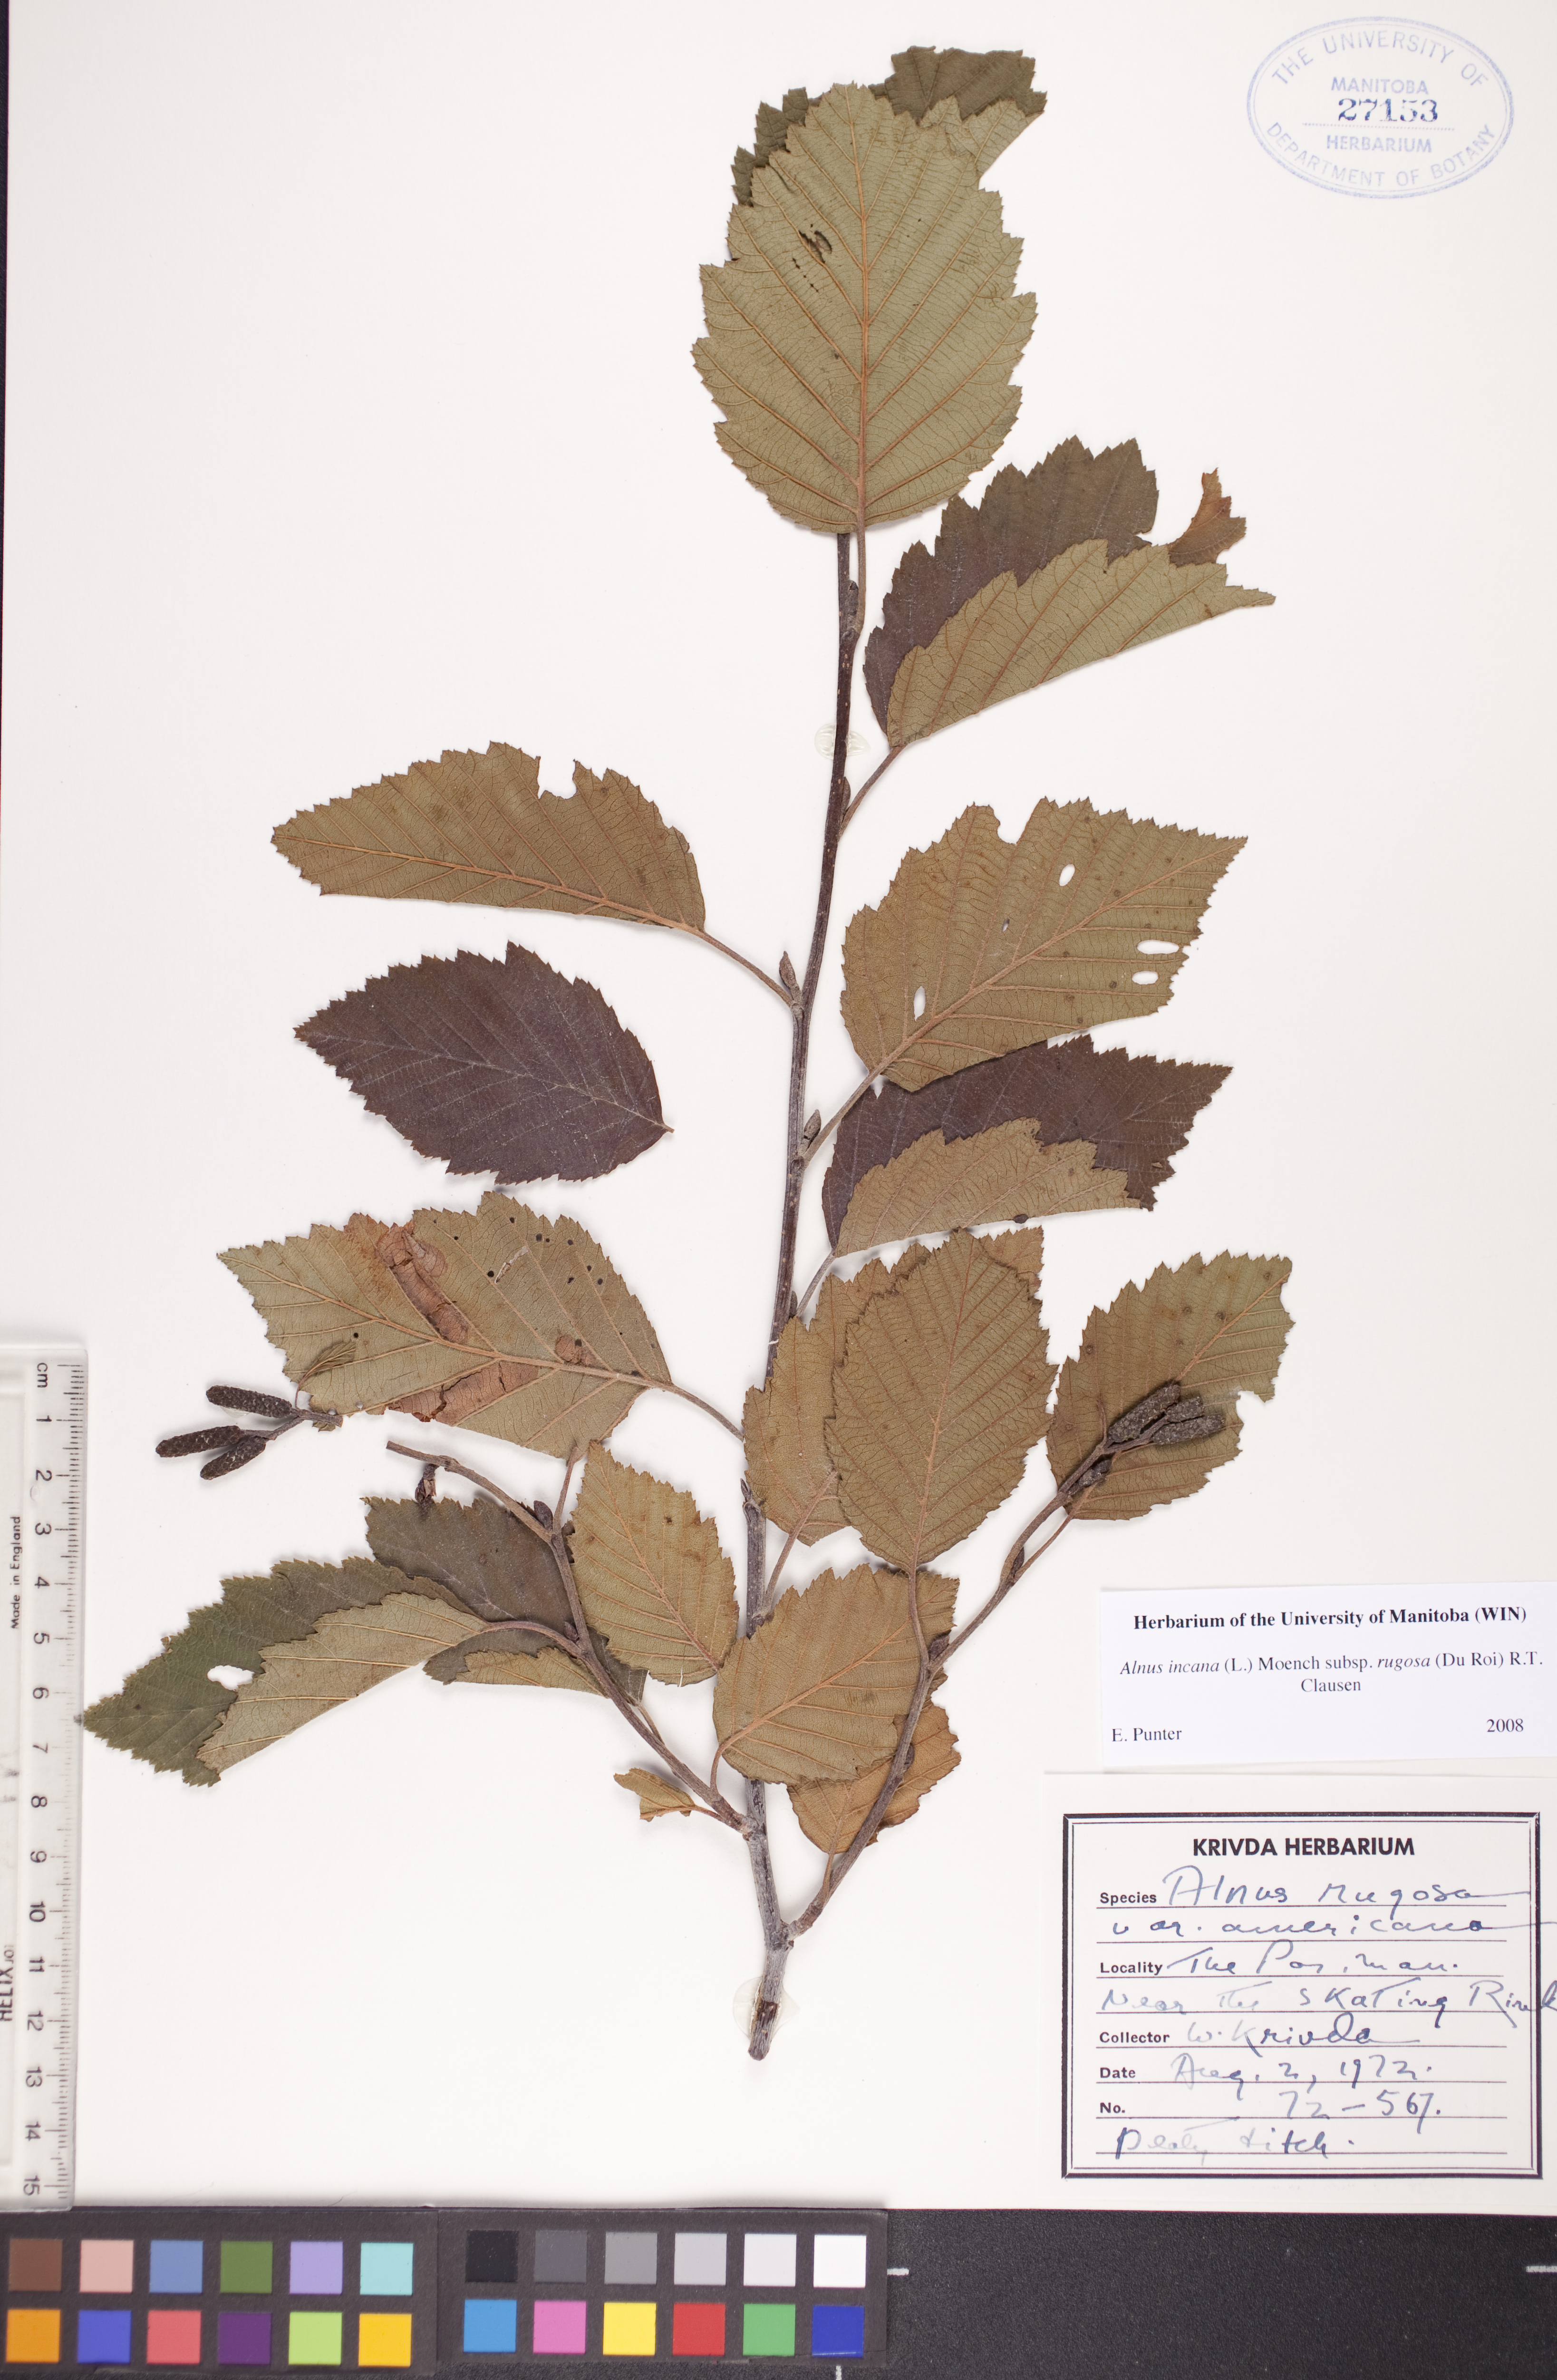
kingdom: Plantae
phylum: Tracheophyta
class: Magnoliopsida
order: Fagales
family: Betulaceae
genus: Alnus
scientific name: Alnus incana
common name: Grey alder
